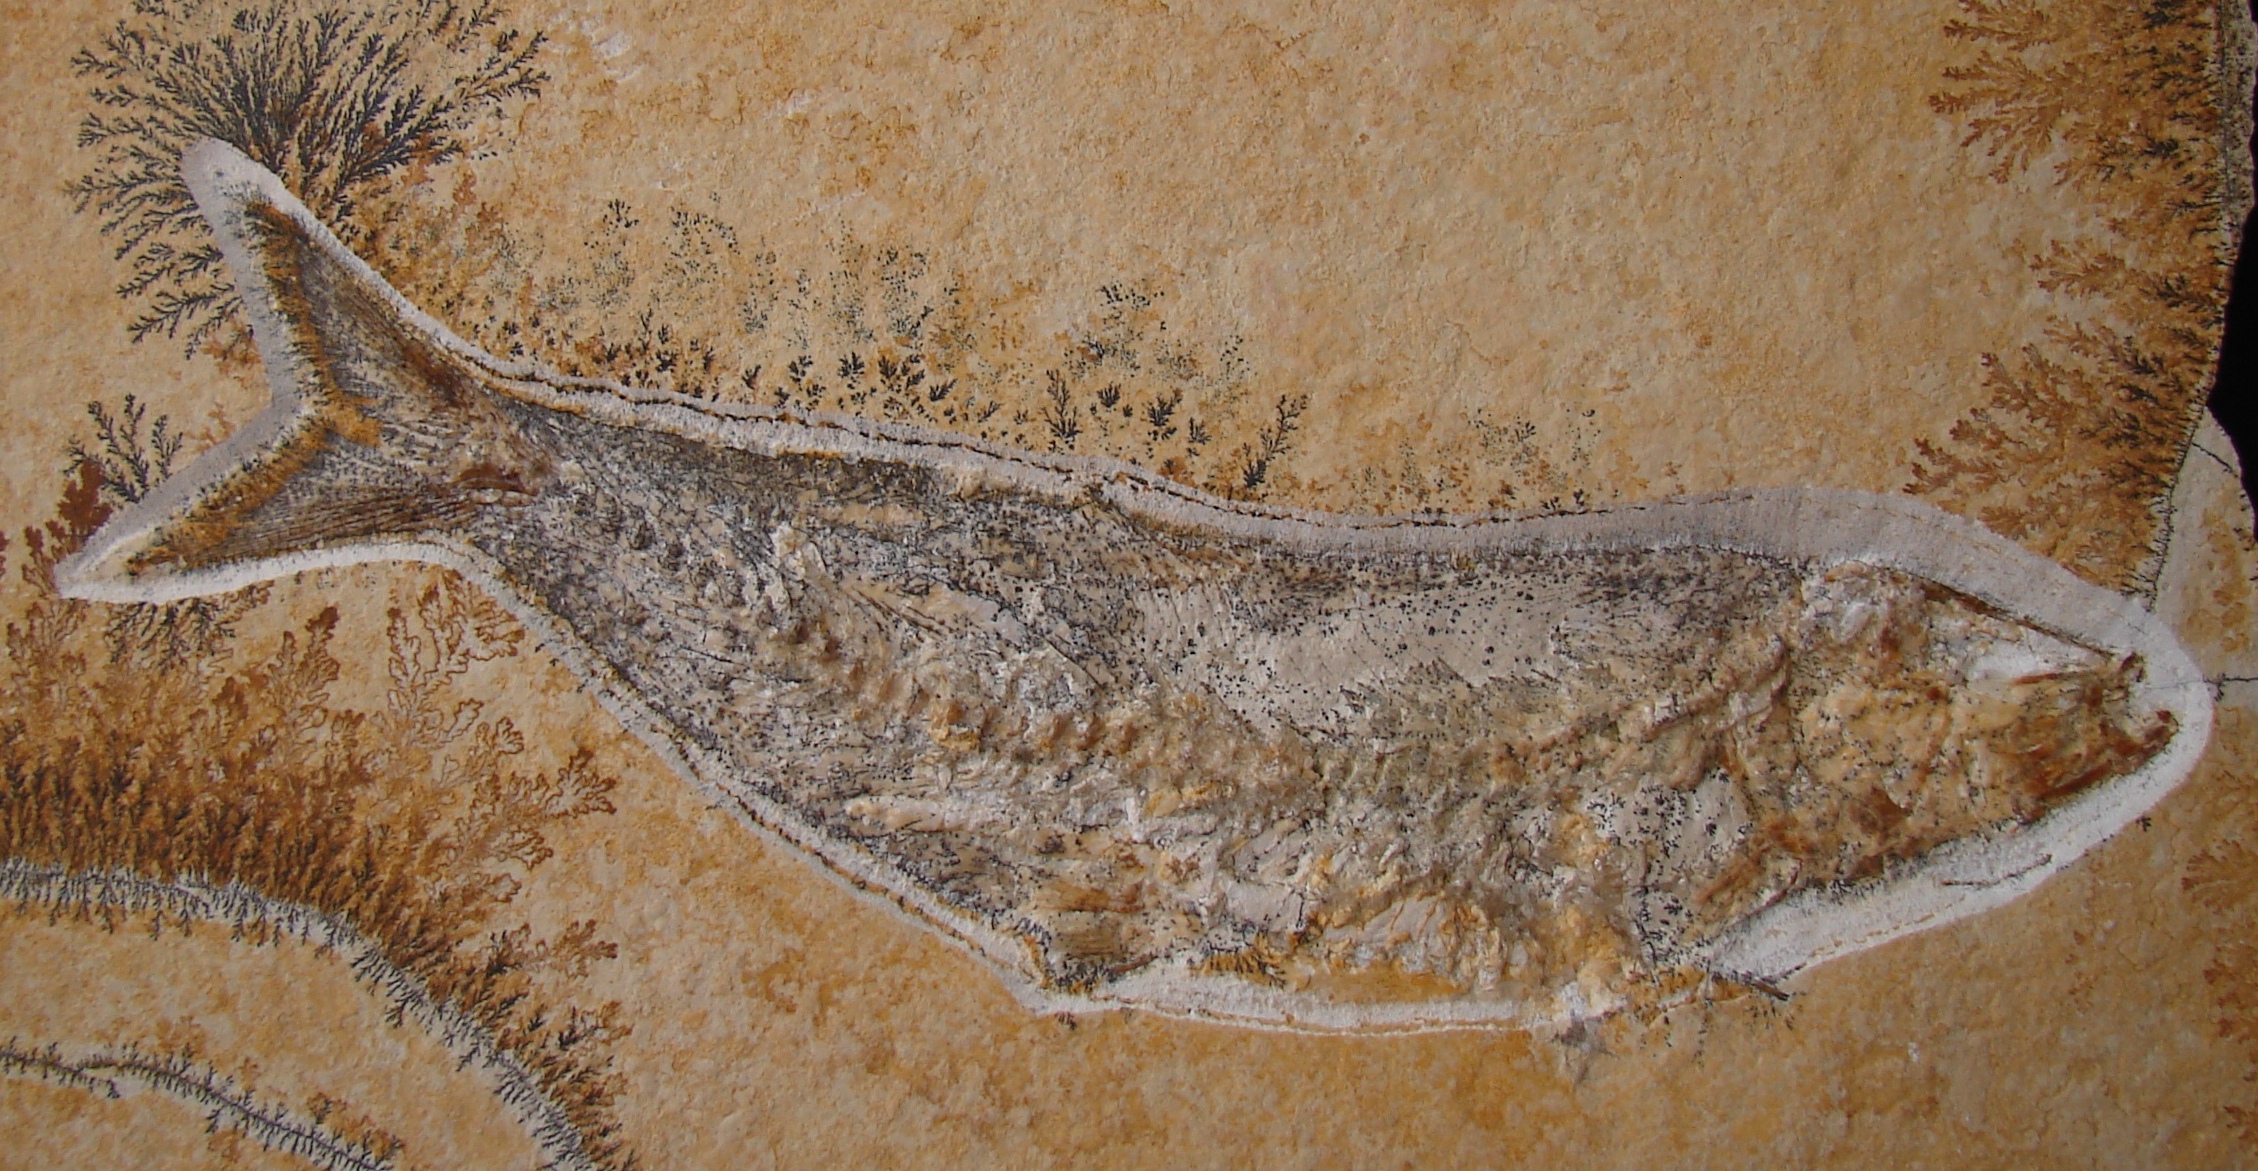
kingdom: Animalia
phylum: Chordata
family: Ascalaboidae
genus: Tharsis
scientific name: Tharsis dubius
